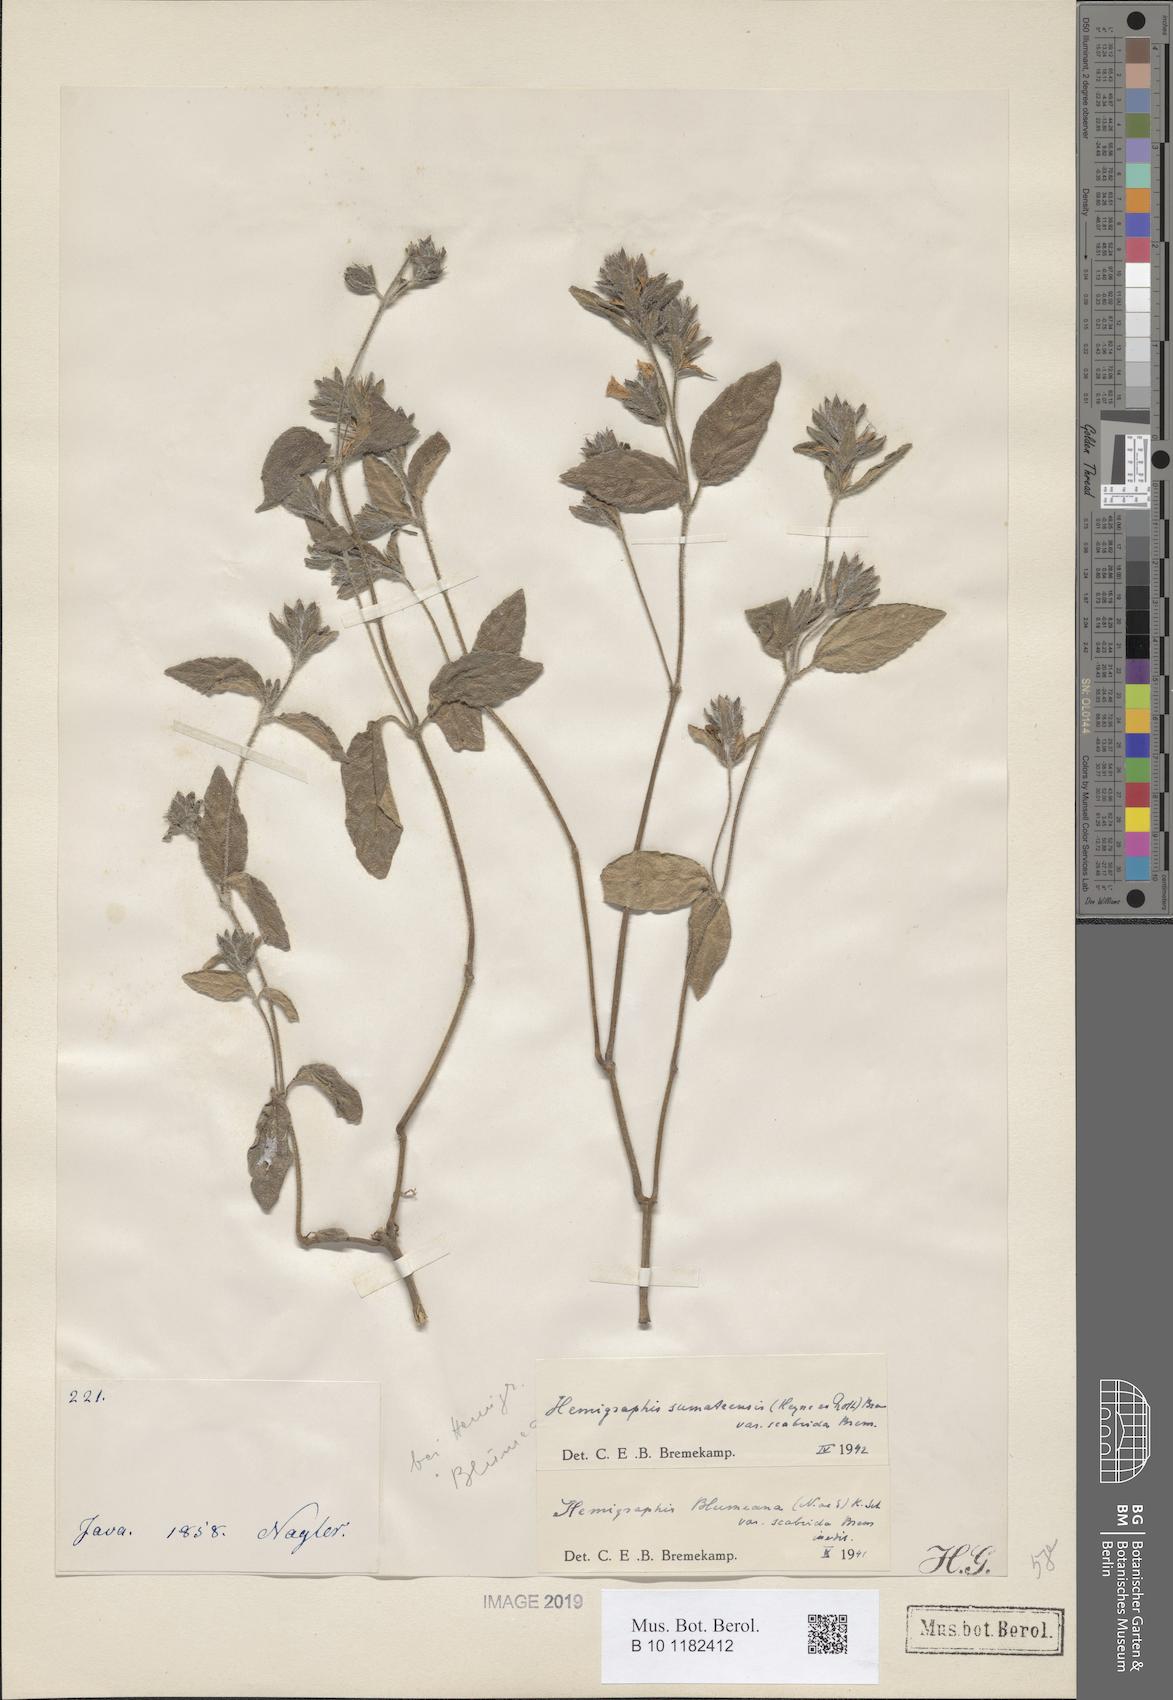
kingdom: Plantae
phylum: Tracheophyta
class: Magnoliopsida
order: Lamiales
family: Acanthaceae
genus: Strobilanthes
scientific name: Strobilanthes blumeana
